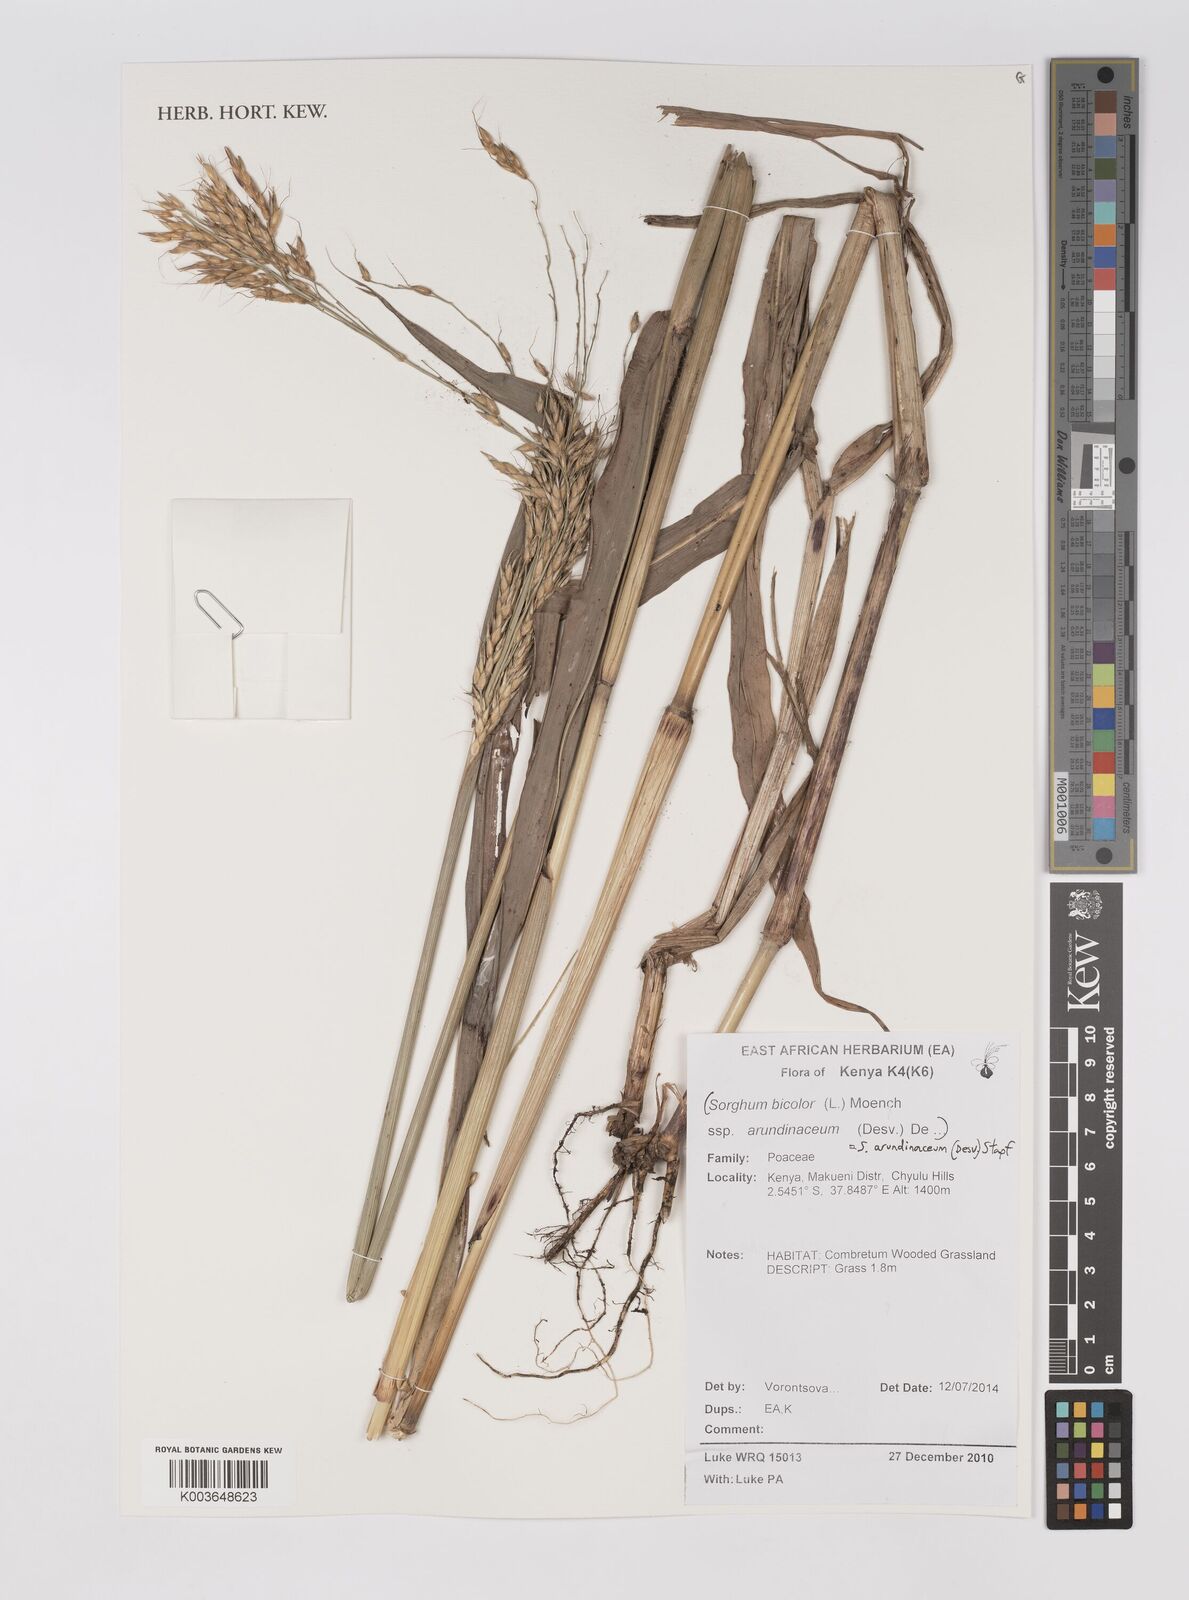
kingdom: Plantae
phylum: Tracheophyta
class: Liliopsida
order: Poales
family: Poaceae
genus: Sorghum
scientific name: Sorghum arundinaceum
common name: Sorghum
